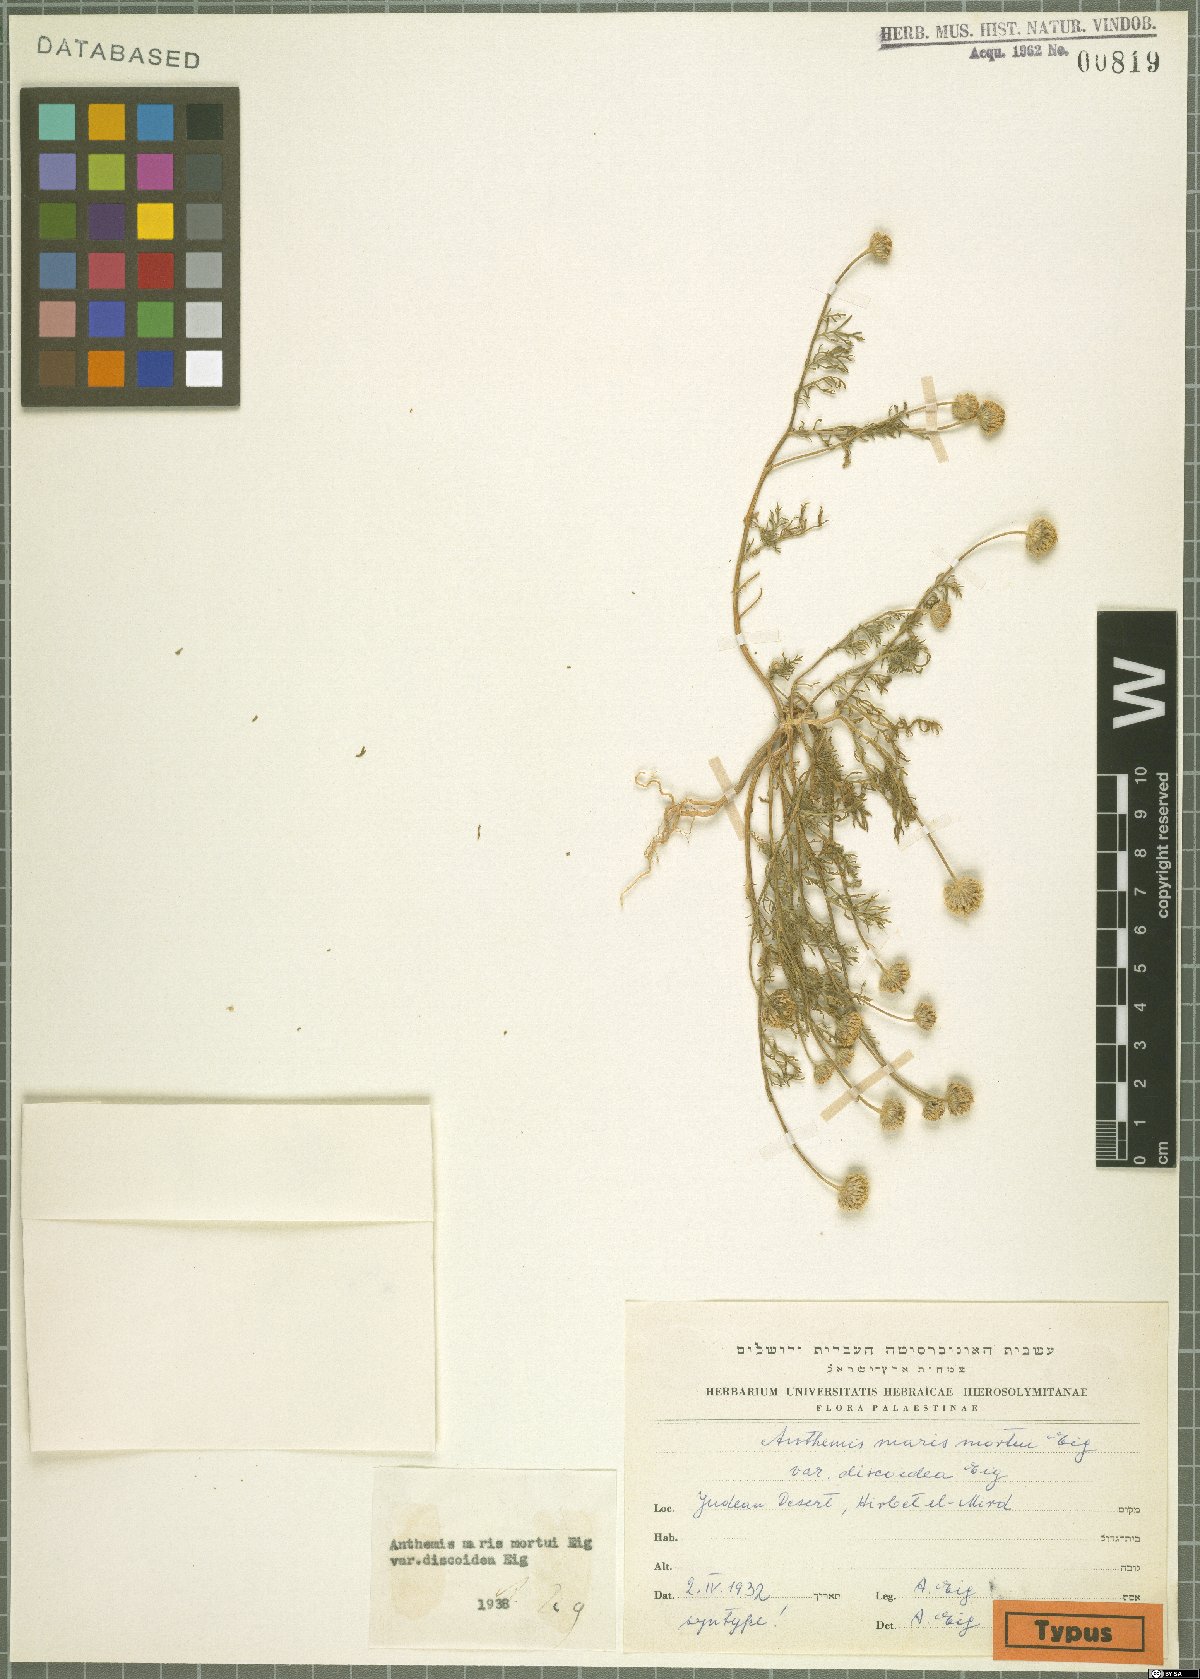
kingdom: Plantae
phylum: Tracheophyta
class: Magnoliopsida
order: Asterales
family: Asteraceae
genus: Anthemis
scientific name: Anthemis maris-mortui
